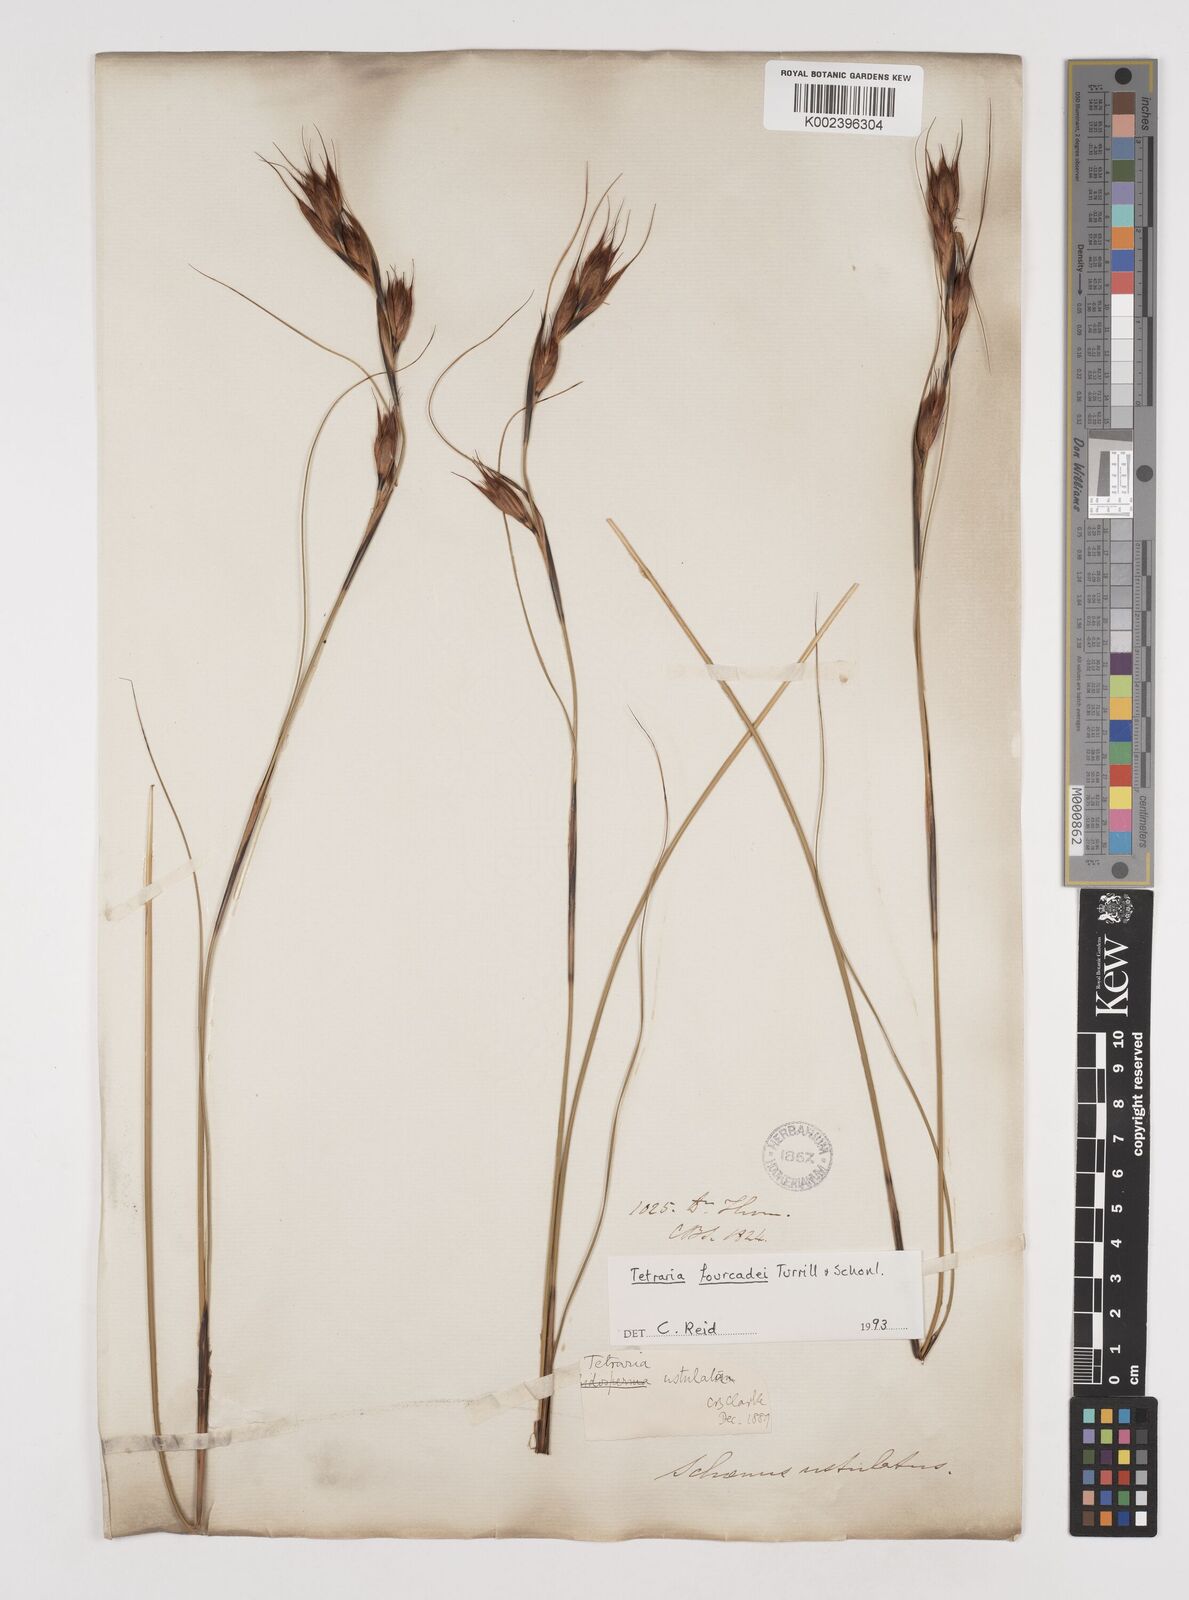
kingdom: Plantae
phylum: Tracheophyta
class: Liliopsida
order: Poales
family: Cyperaceae
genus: Tetraria
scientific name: Tetraria fourcadei
